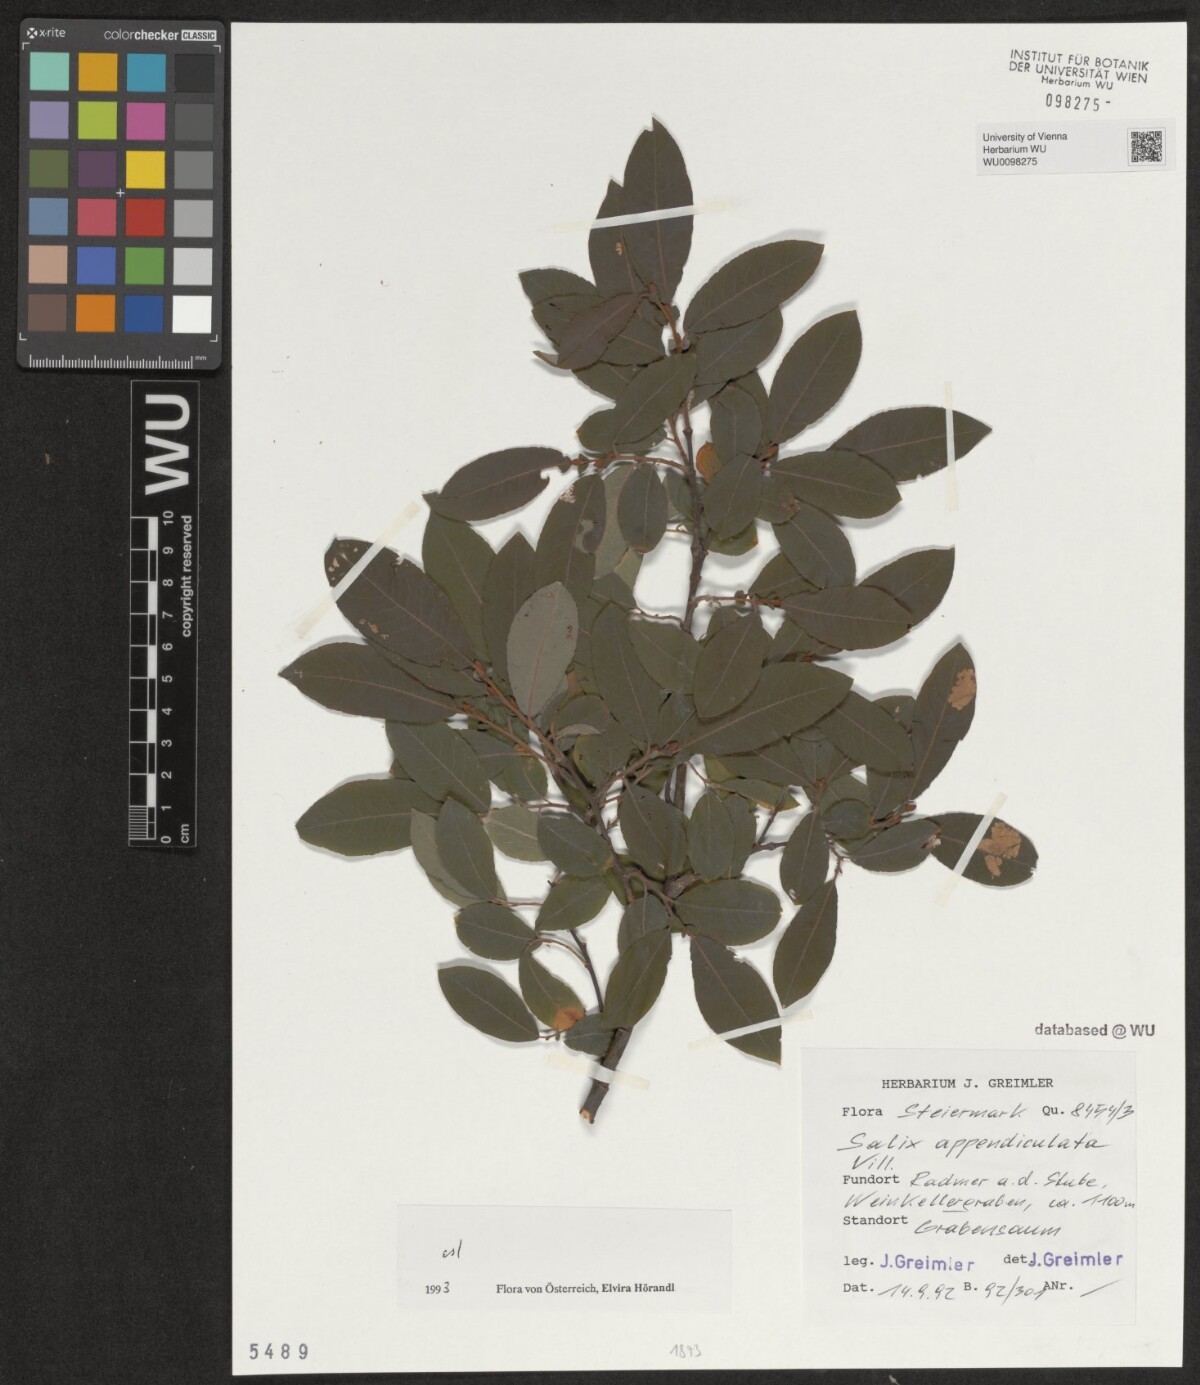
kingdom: Plantae
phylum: Tracheophyta
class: Magnoliopsida
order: Malpighiales
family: Salicaceae
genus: Salix
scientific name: Salix appendiculata
